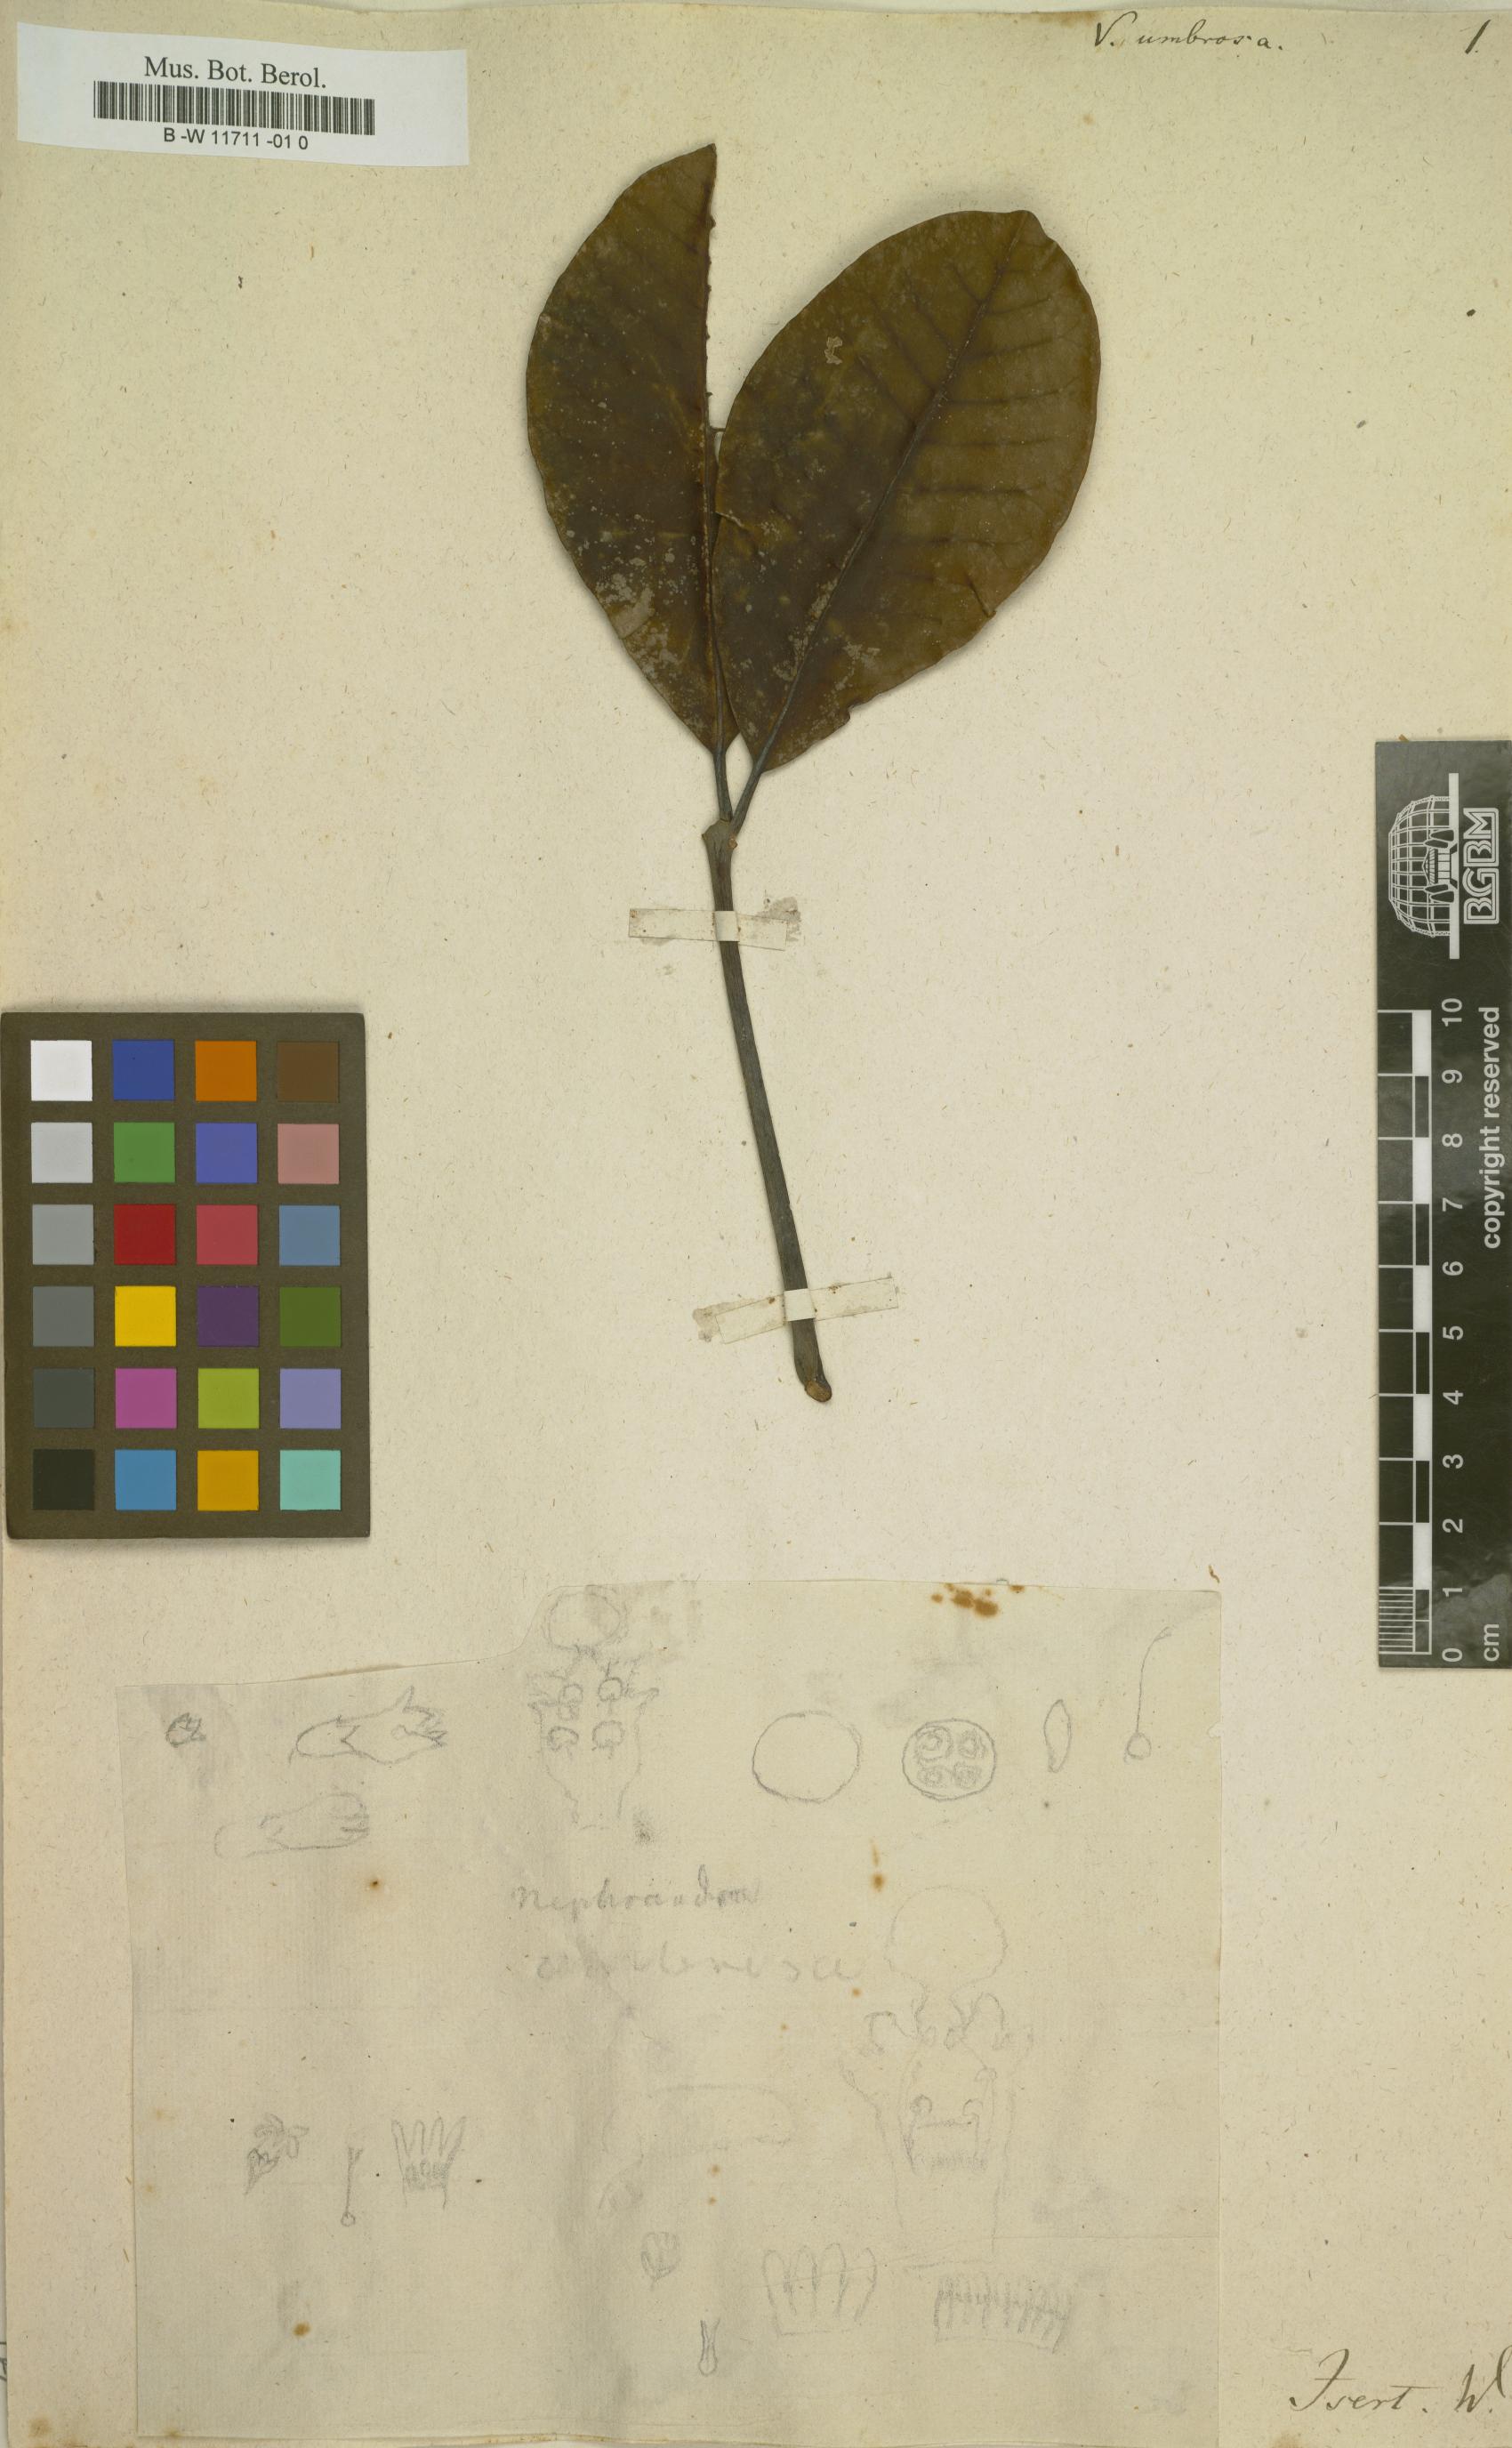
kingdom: Plantae
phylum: Tracheophyta
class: Magnoliopsida
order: Lamiales
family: Lamiaceae
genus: Vitex
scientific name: Vitex umbrosa
